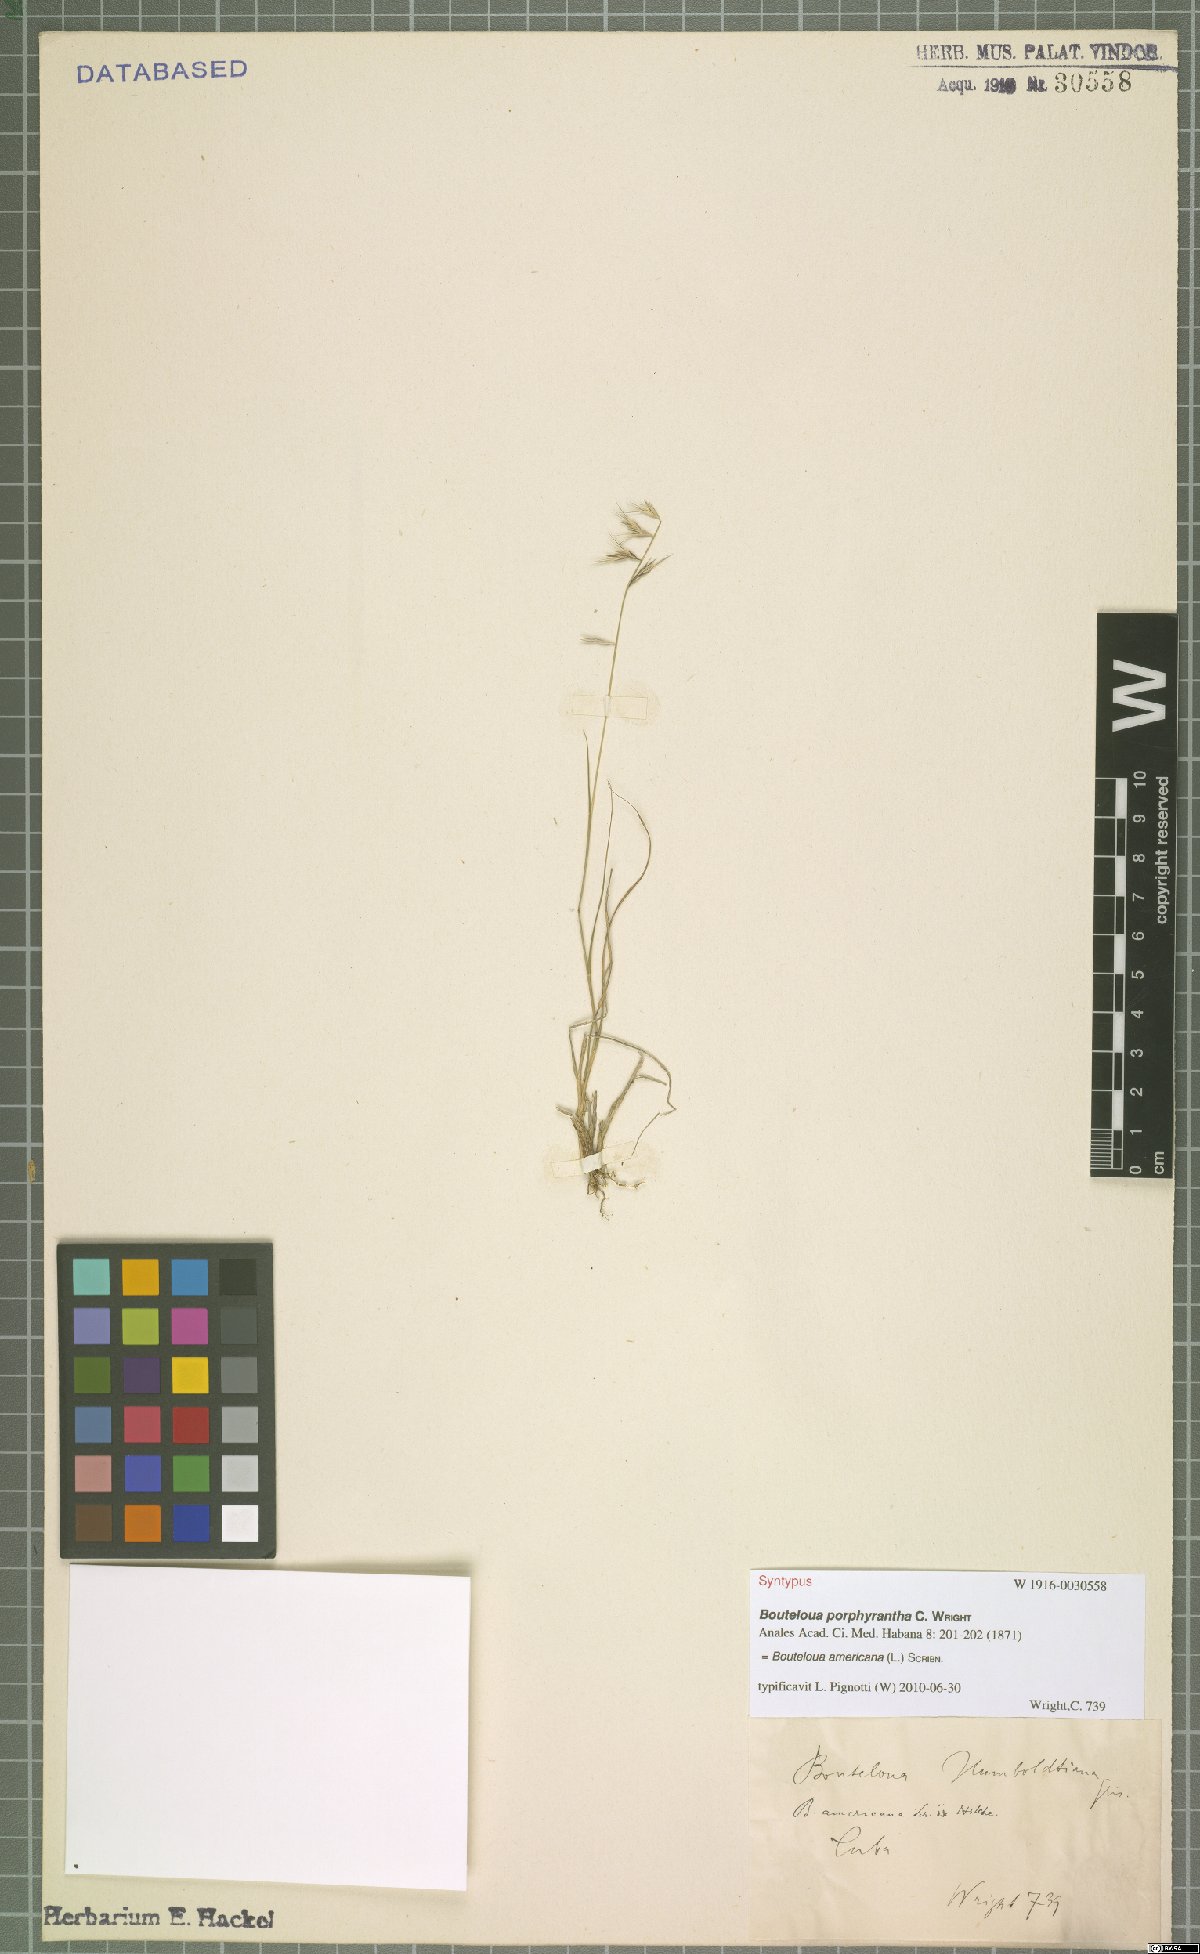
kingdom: Plantae
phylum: Tracheophyta
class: Liliopsida
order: Poales
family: Poaceae
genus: Bouteloua
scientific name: Bouteloua americana
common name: Mule grass
